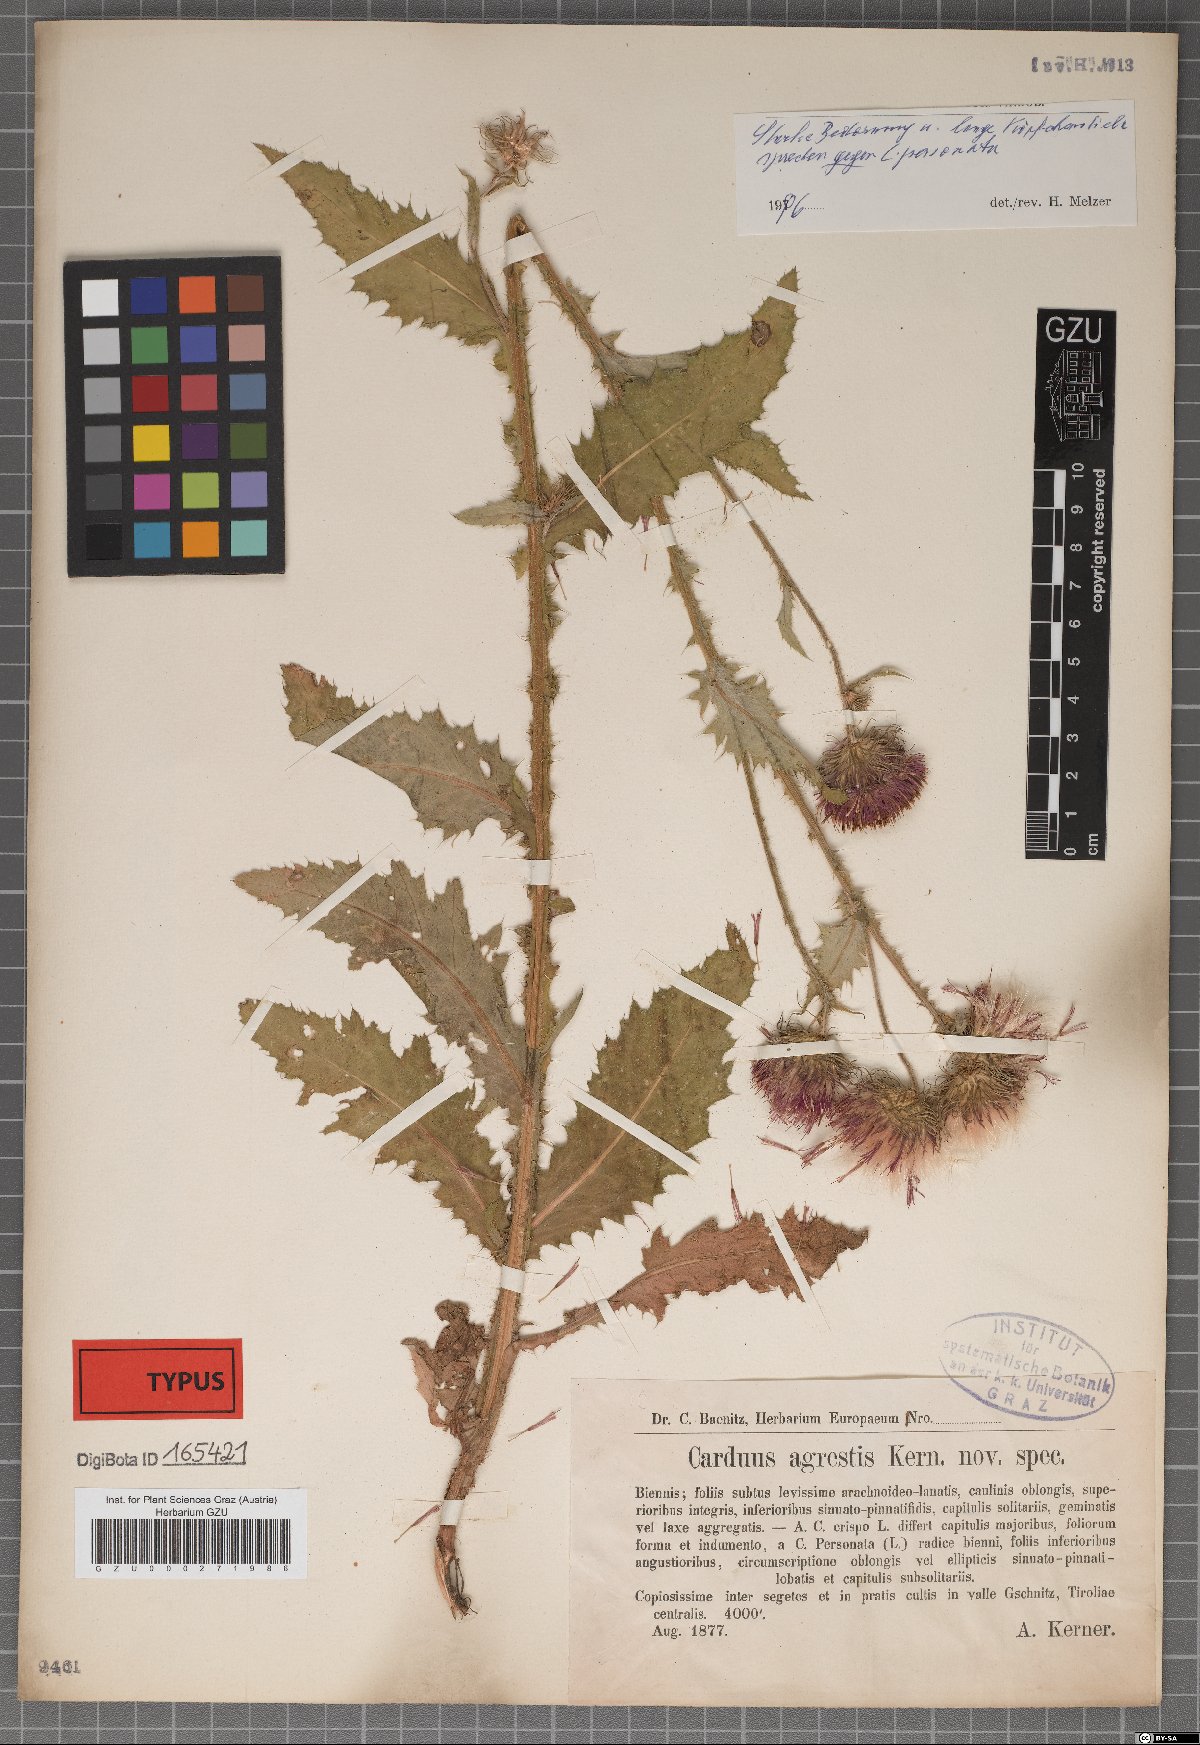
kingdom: Plantae
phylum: Tracheophyta
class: Magnoliopsida
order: Asterales
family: Asteraceae
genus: Carduus
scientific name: Carduus crispus
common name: Welted thistle
